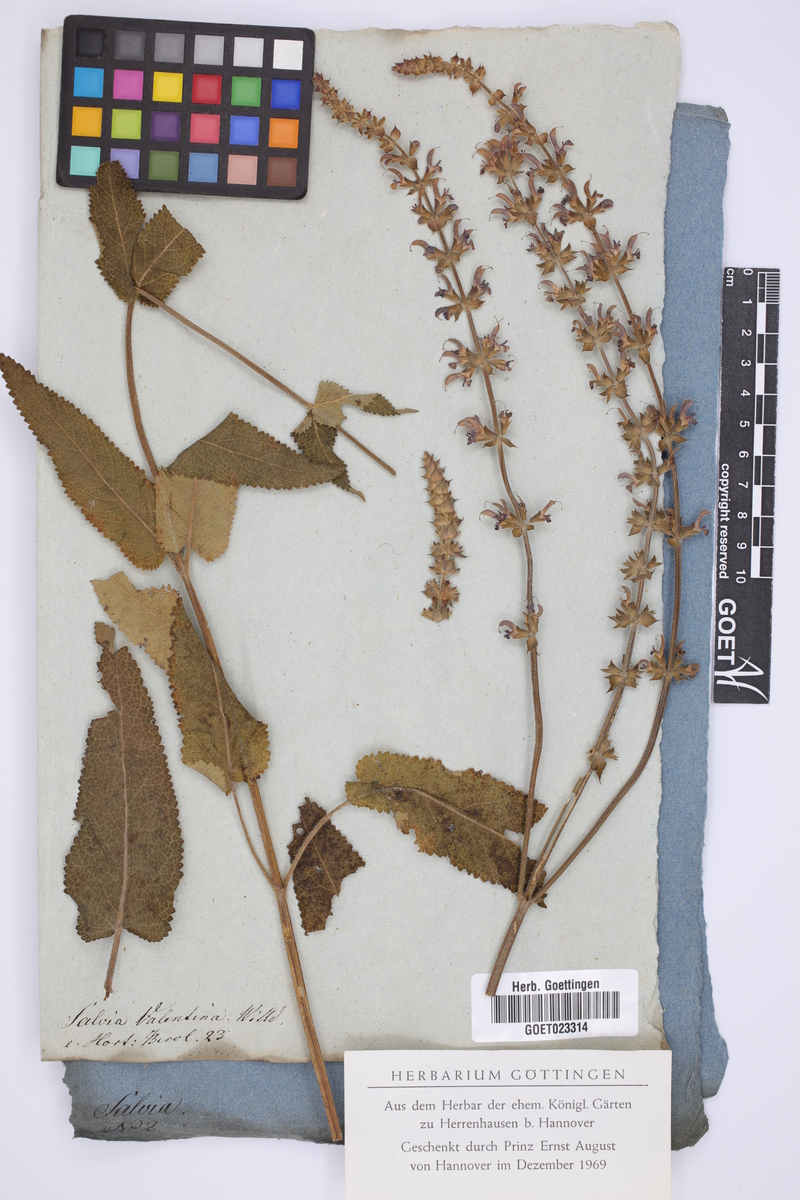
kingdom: Plantae
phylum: Tracheophyta
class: Magnoliopsida
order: Lamiales
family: Lamiaceae
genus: Salvia
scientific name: Salvia valentina
